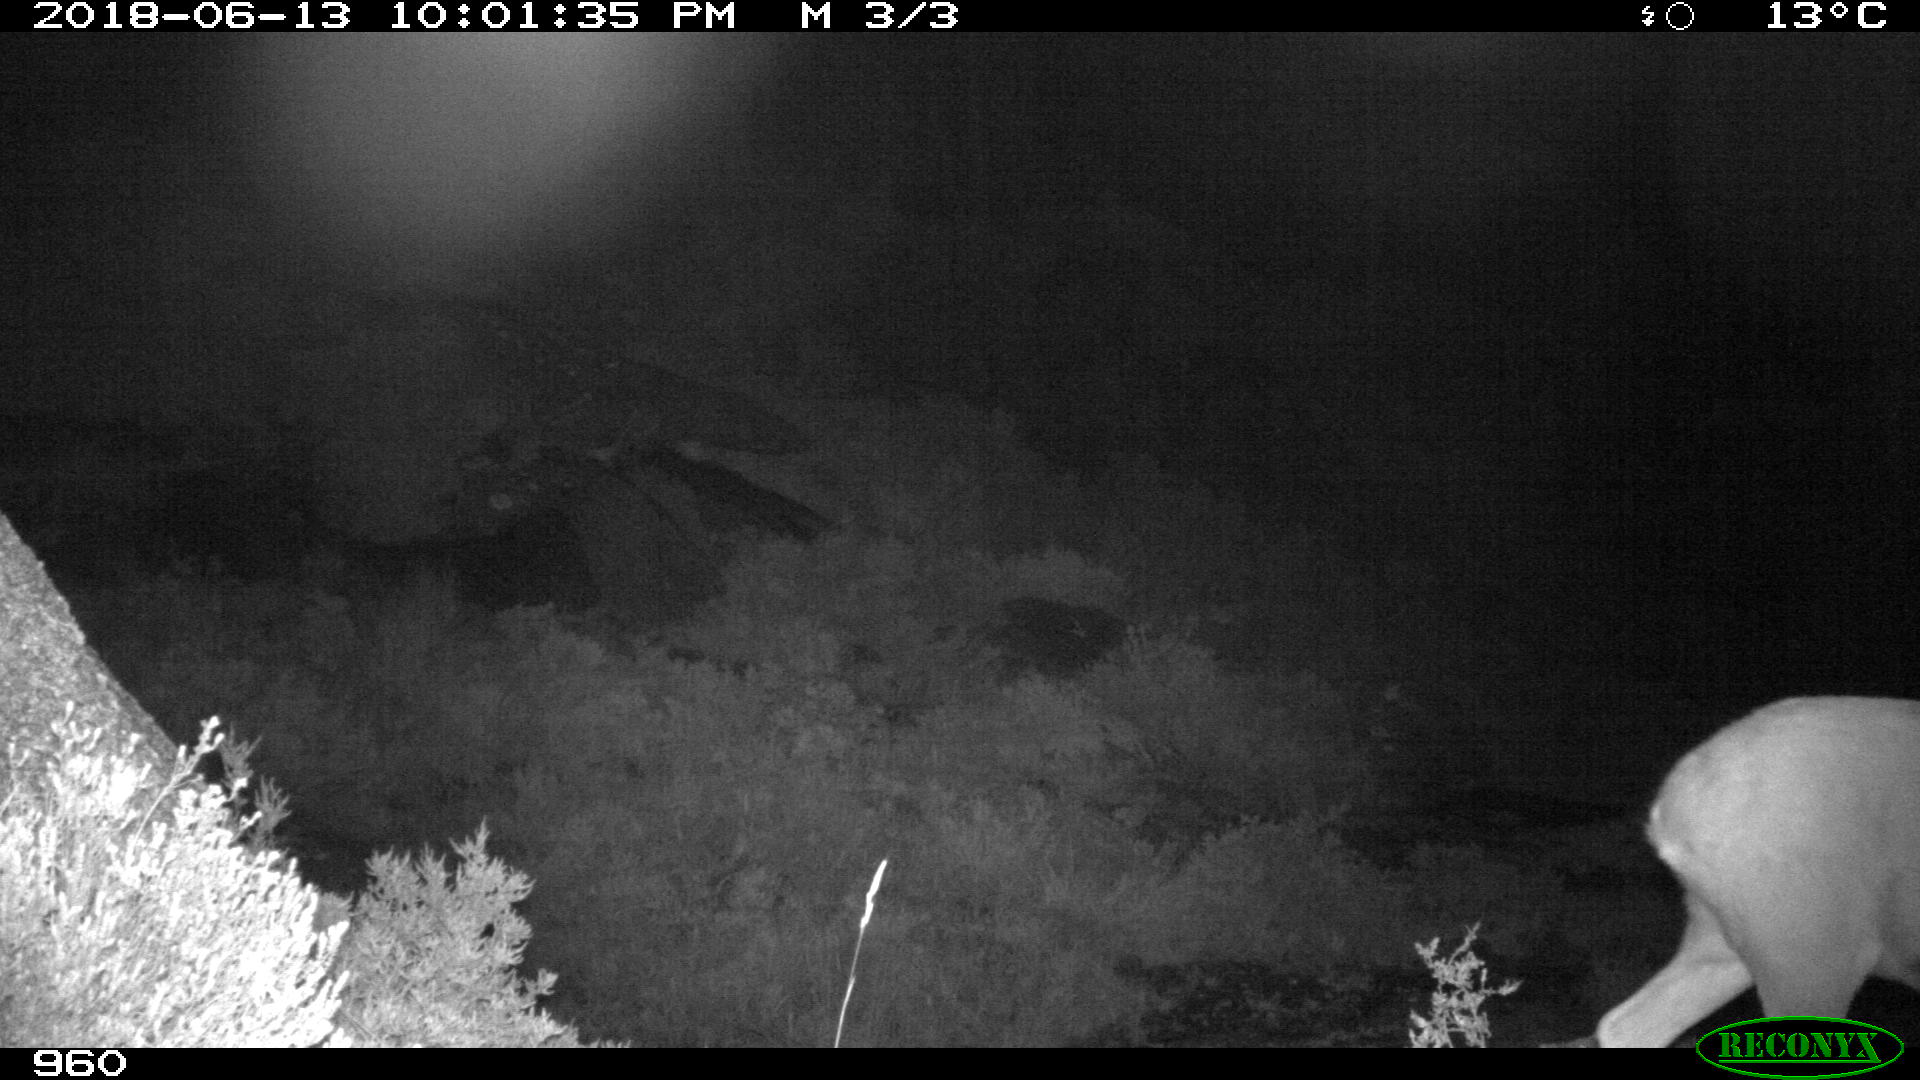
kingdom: Animalia
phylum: Chordata
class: Mammalia
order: Artiodactyla
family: Cervidae
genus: Capreolus
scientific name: Capreolus capreolus
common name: Western roe deer
